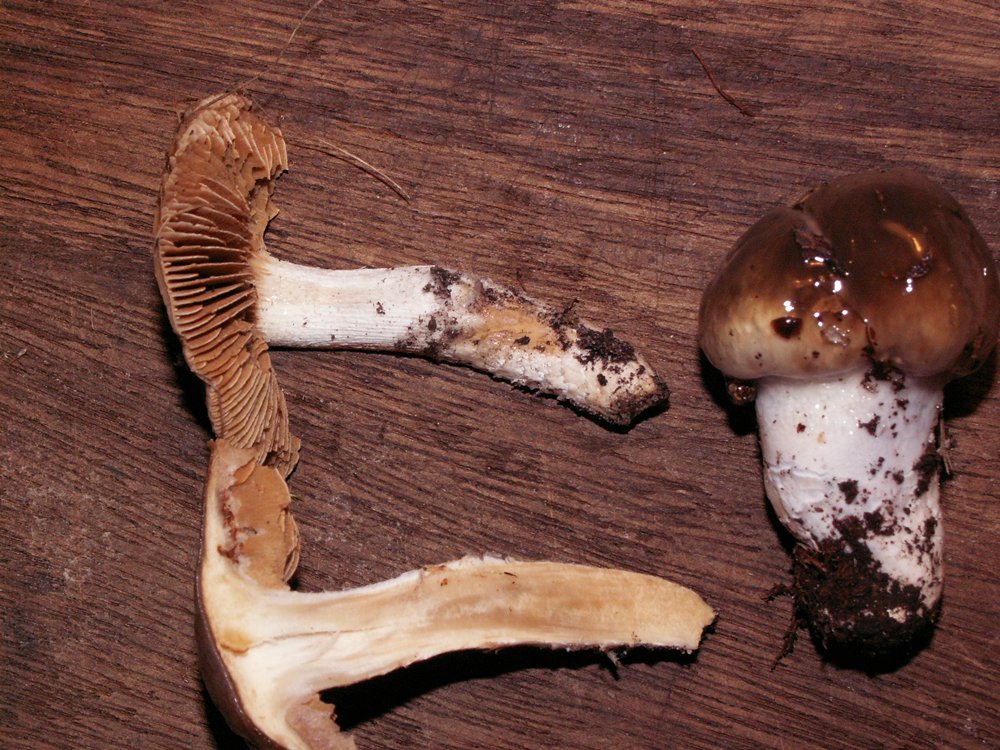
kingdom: Fungi
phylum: Basidiomycota
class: Agaricomycetes
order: Agaricales
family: Cortinariaceae
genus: Cortinarius
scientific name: Cortinarius elatior
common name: høj slørhat
